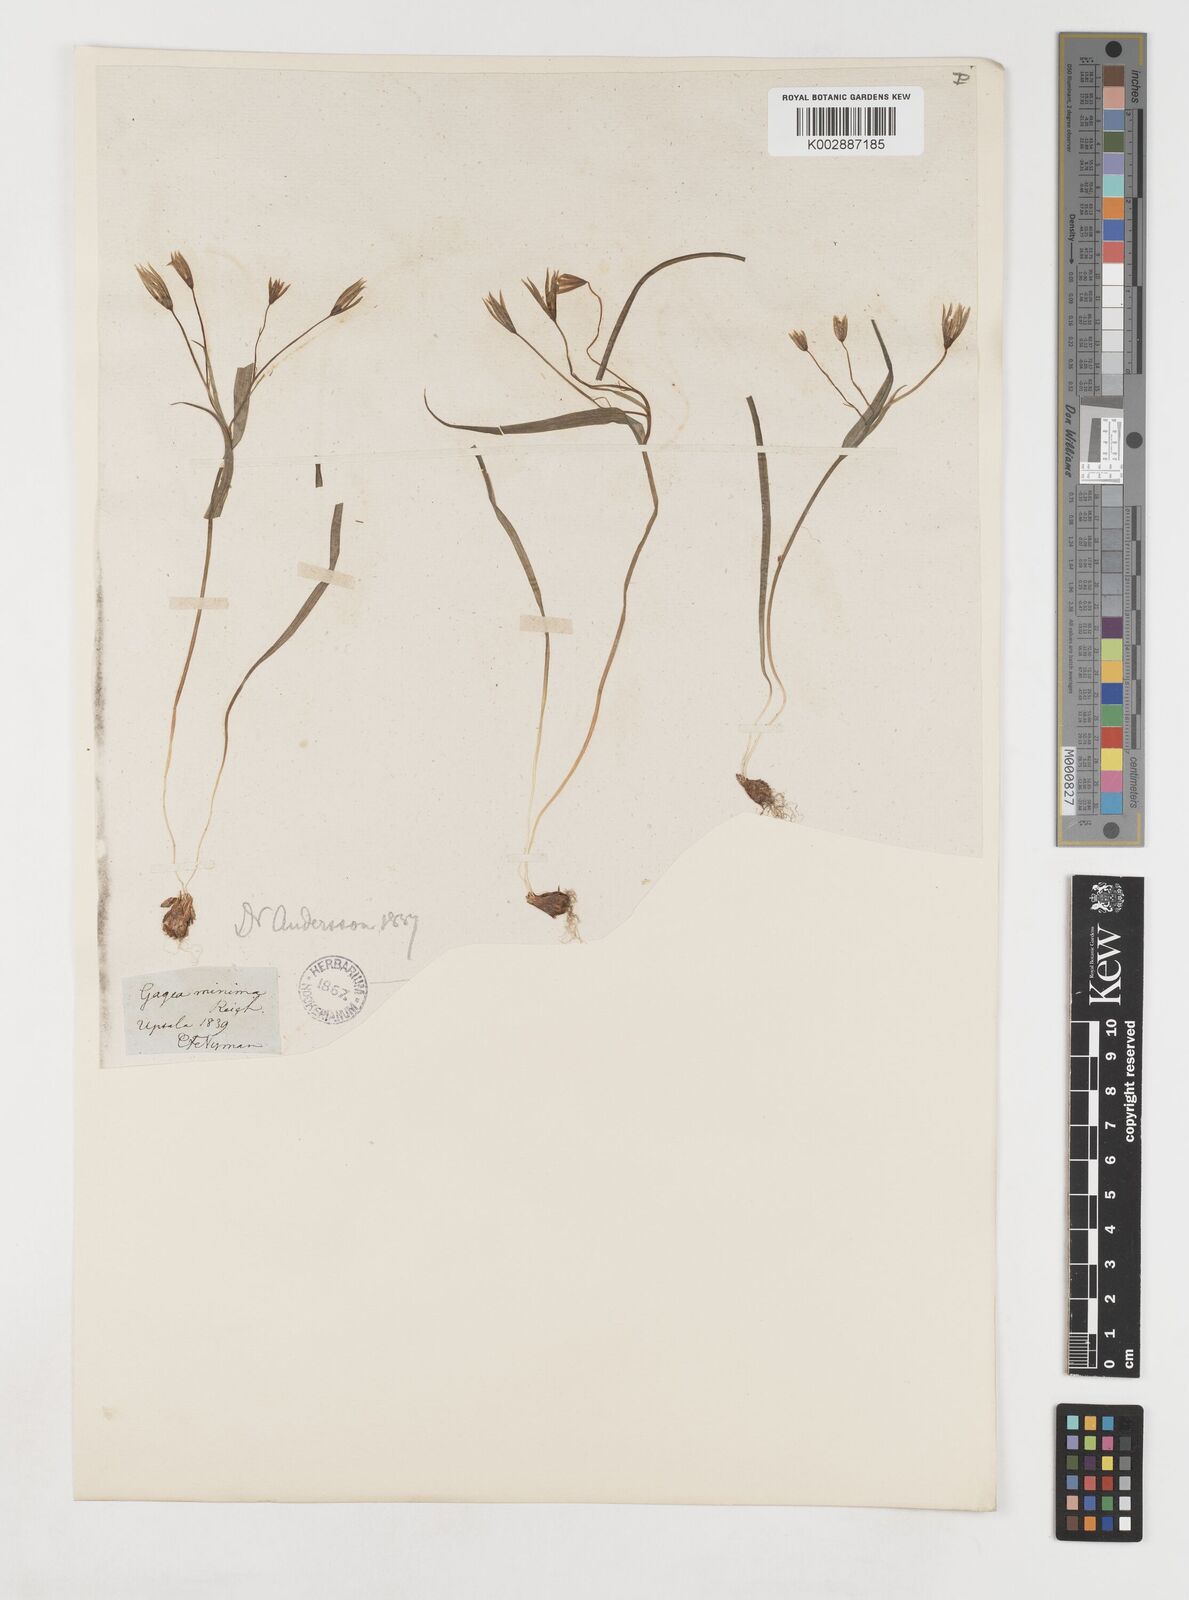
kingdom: Plantae
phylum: Tracheophyta
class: Liliopsida
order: Liliales
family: Liliaceae
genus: Gagea
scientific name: Gagea minima
